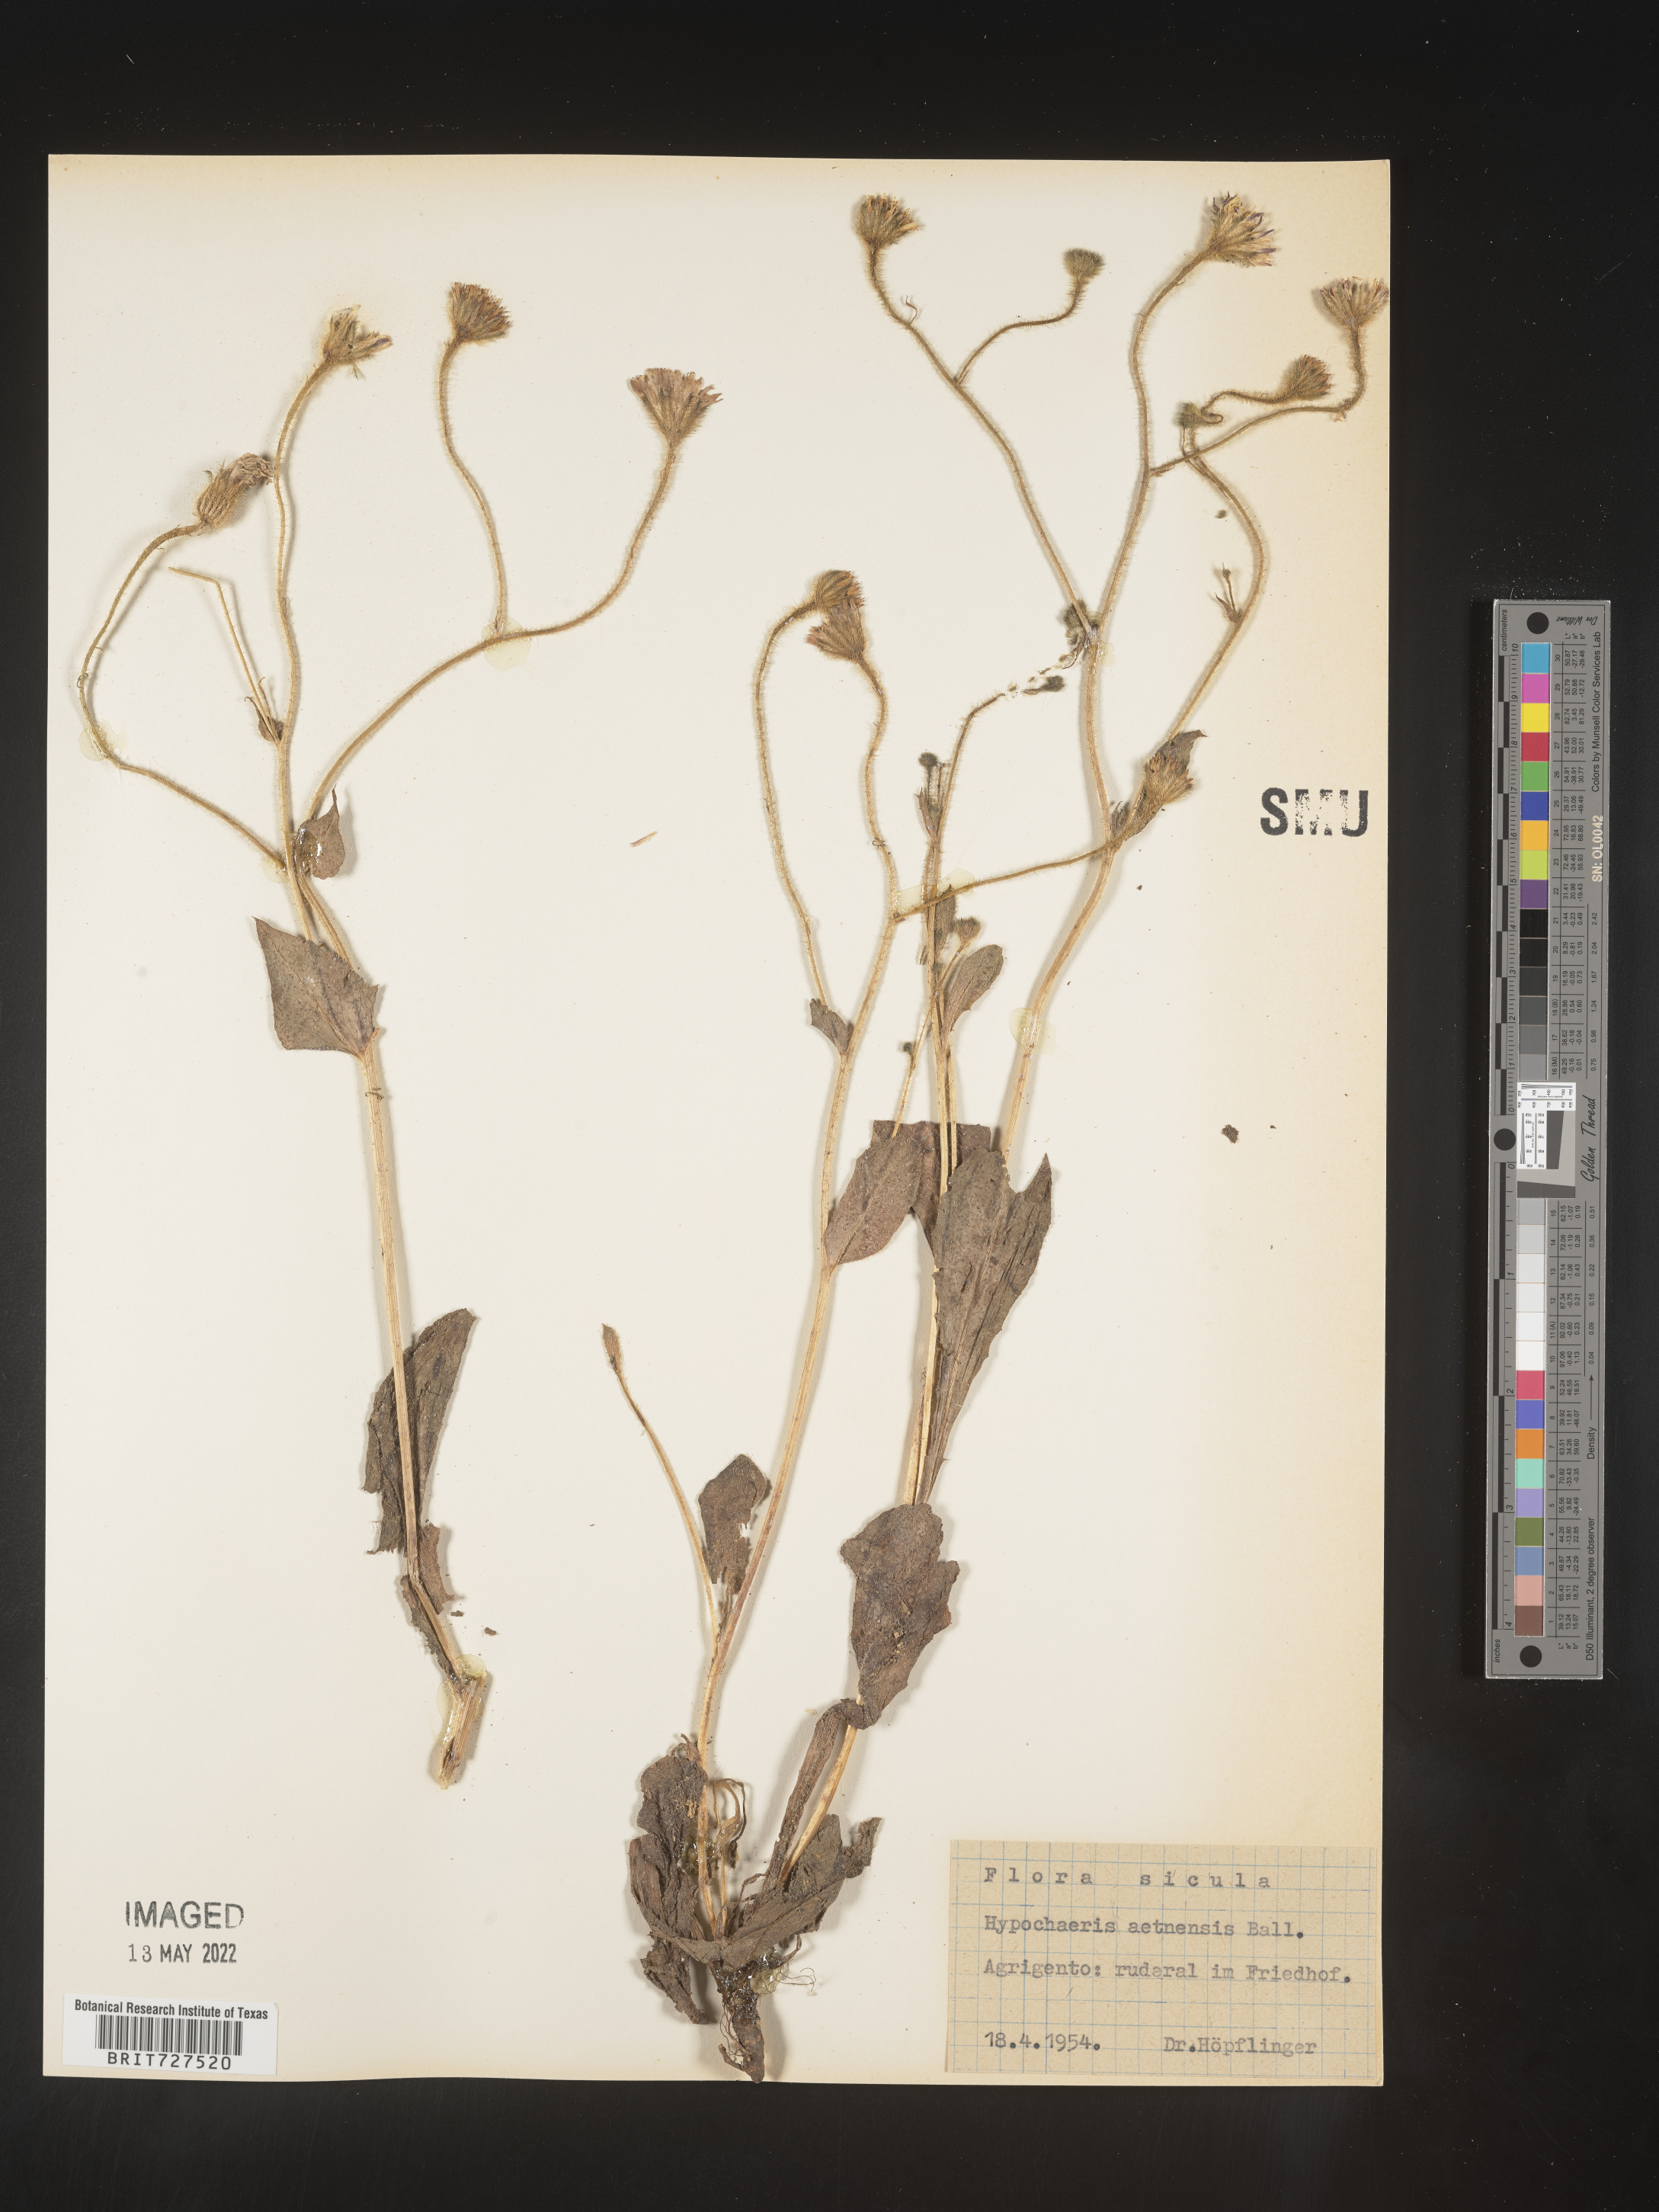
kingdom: Plantae
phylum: Tracheophyta
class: Magnoliopsida
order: Asterales
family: Asteraceae
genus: Hypochaeris
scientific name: Hypochaeris
